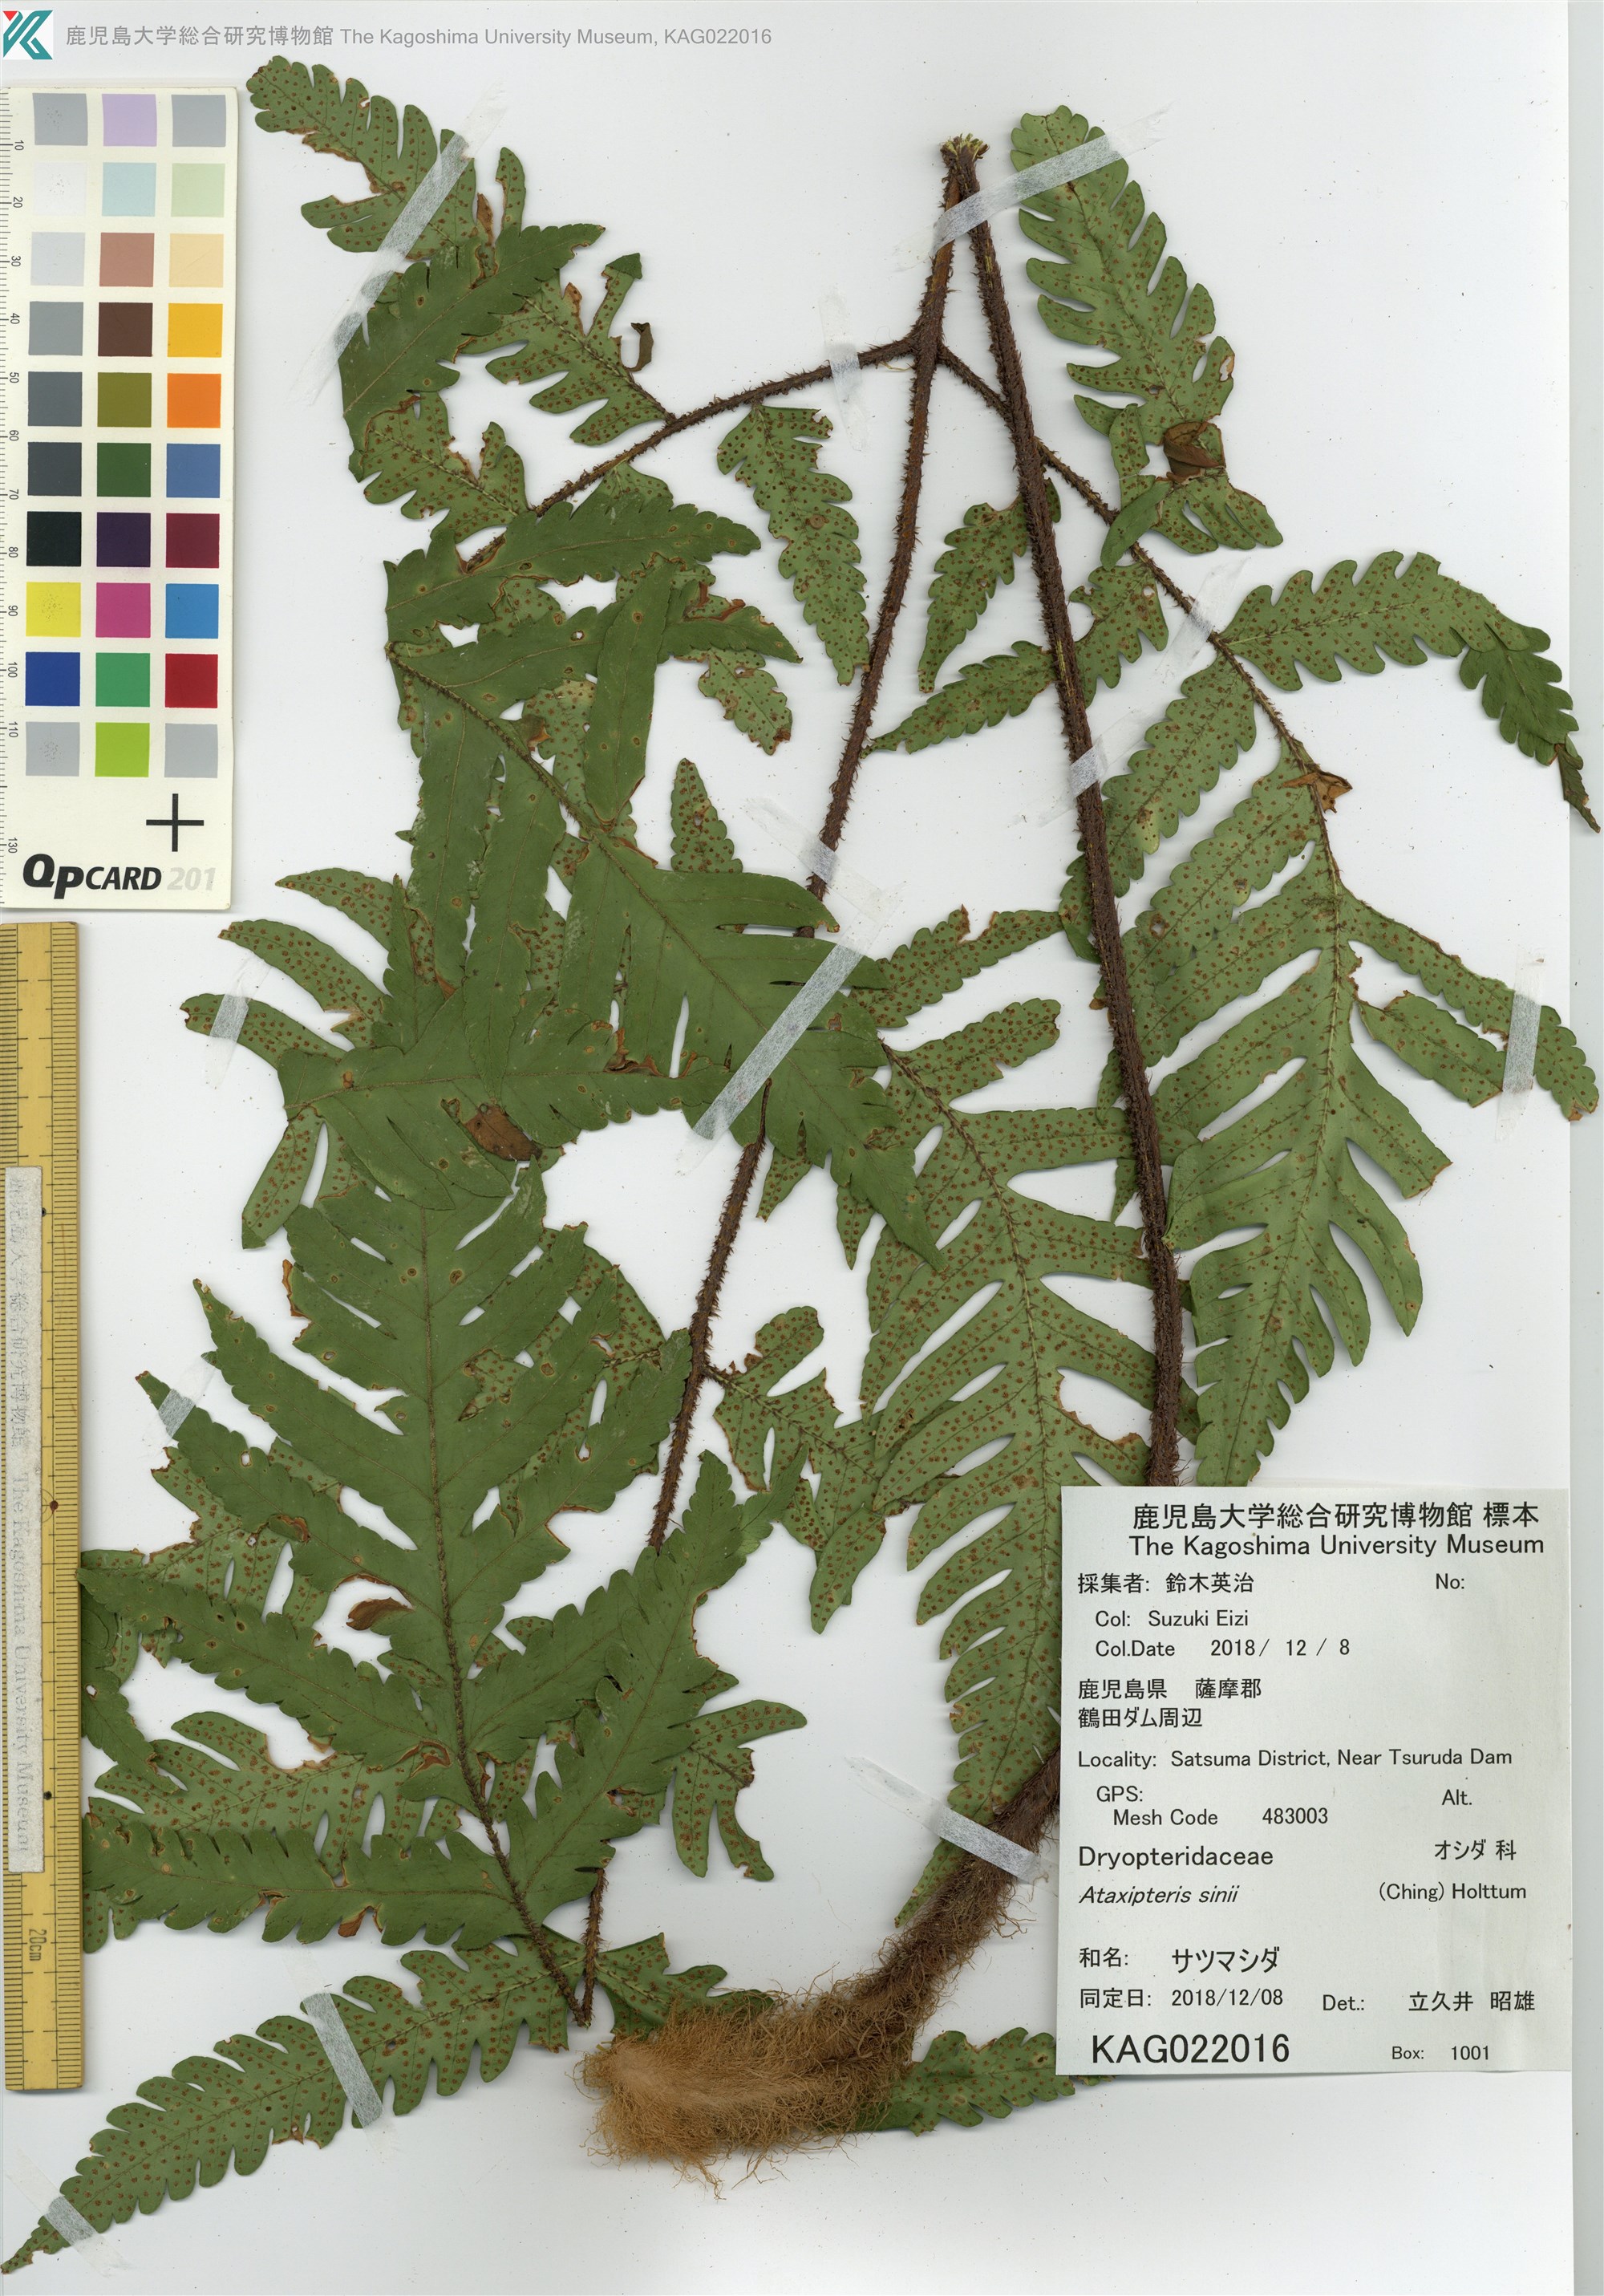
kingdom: Plantae
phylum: Tracheophyta
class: Polypodiopsida
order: Polypodiales
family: Dryopteridaceae
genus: Ctenitis
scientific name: Ctenitis sinii
